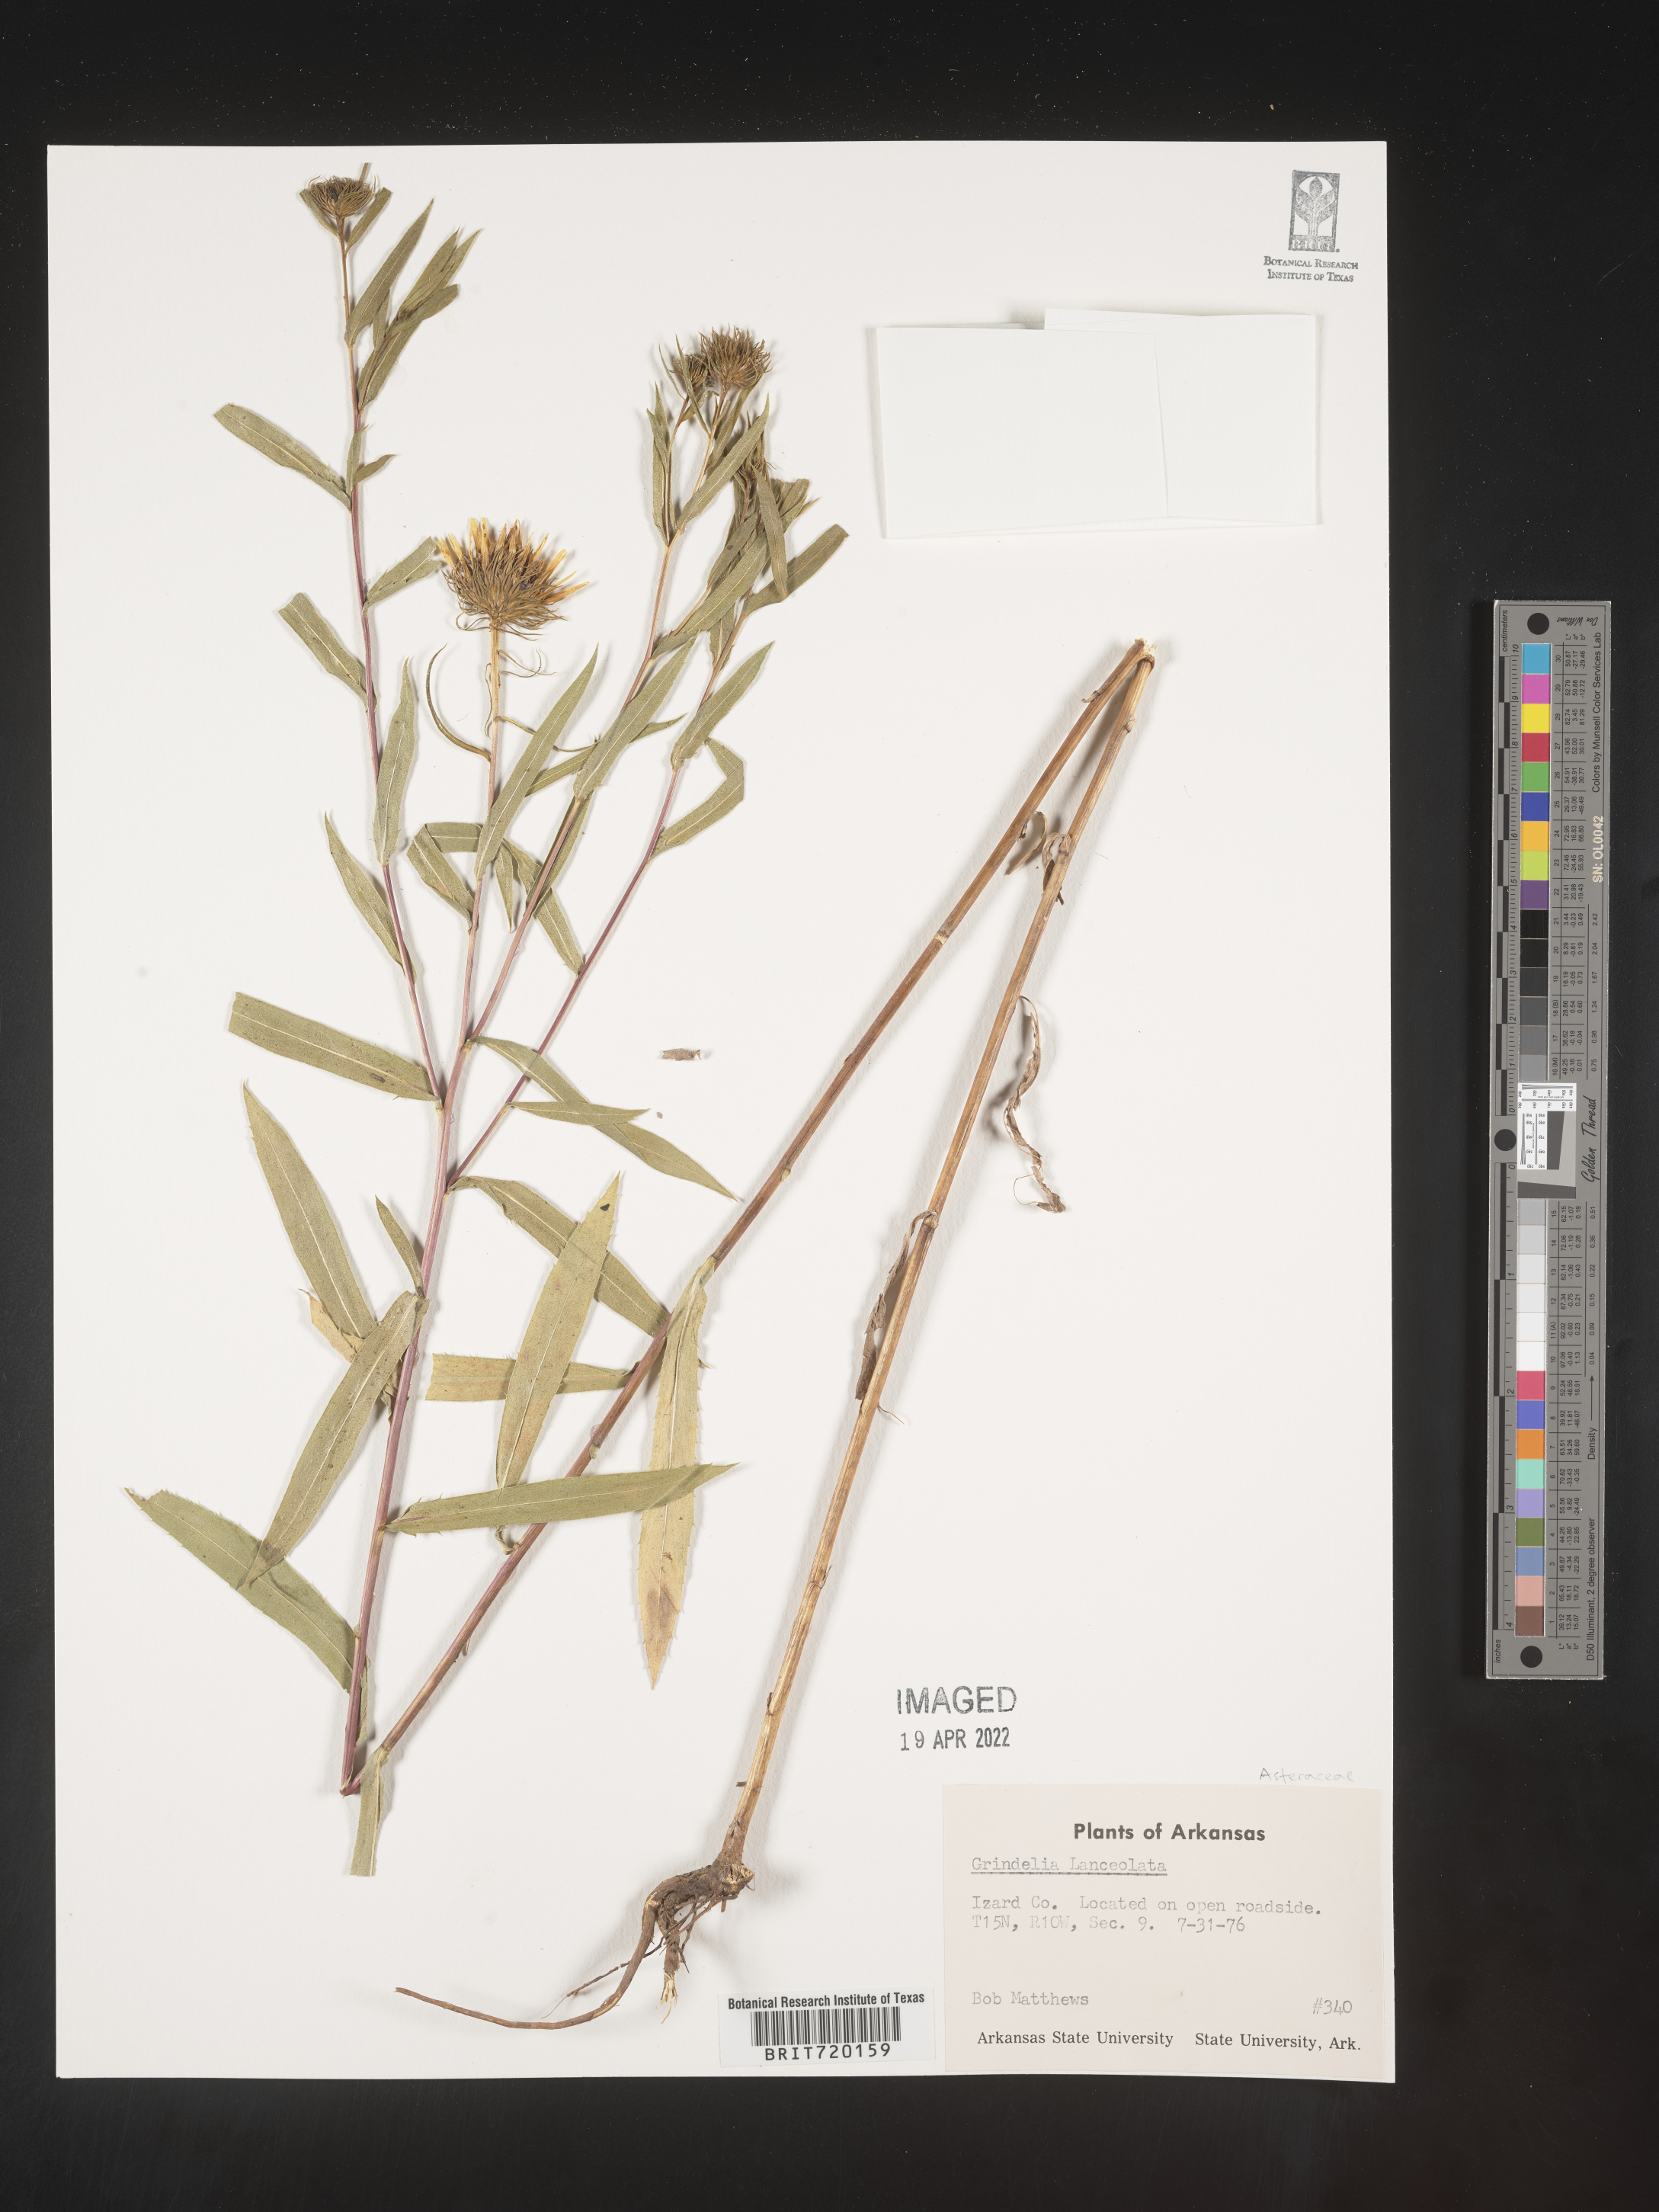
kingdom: Plantae
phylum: Tracheophyta
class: Magnoliopsida
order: Asterales
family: Asteraceae
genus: Grindelia
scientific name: Grindelia lanceolata
